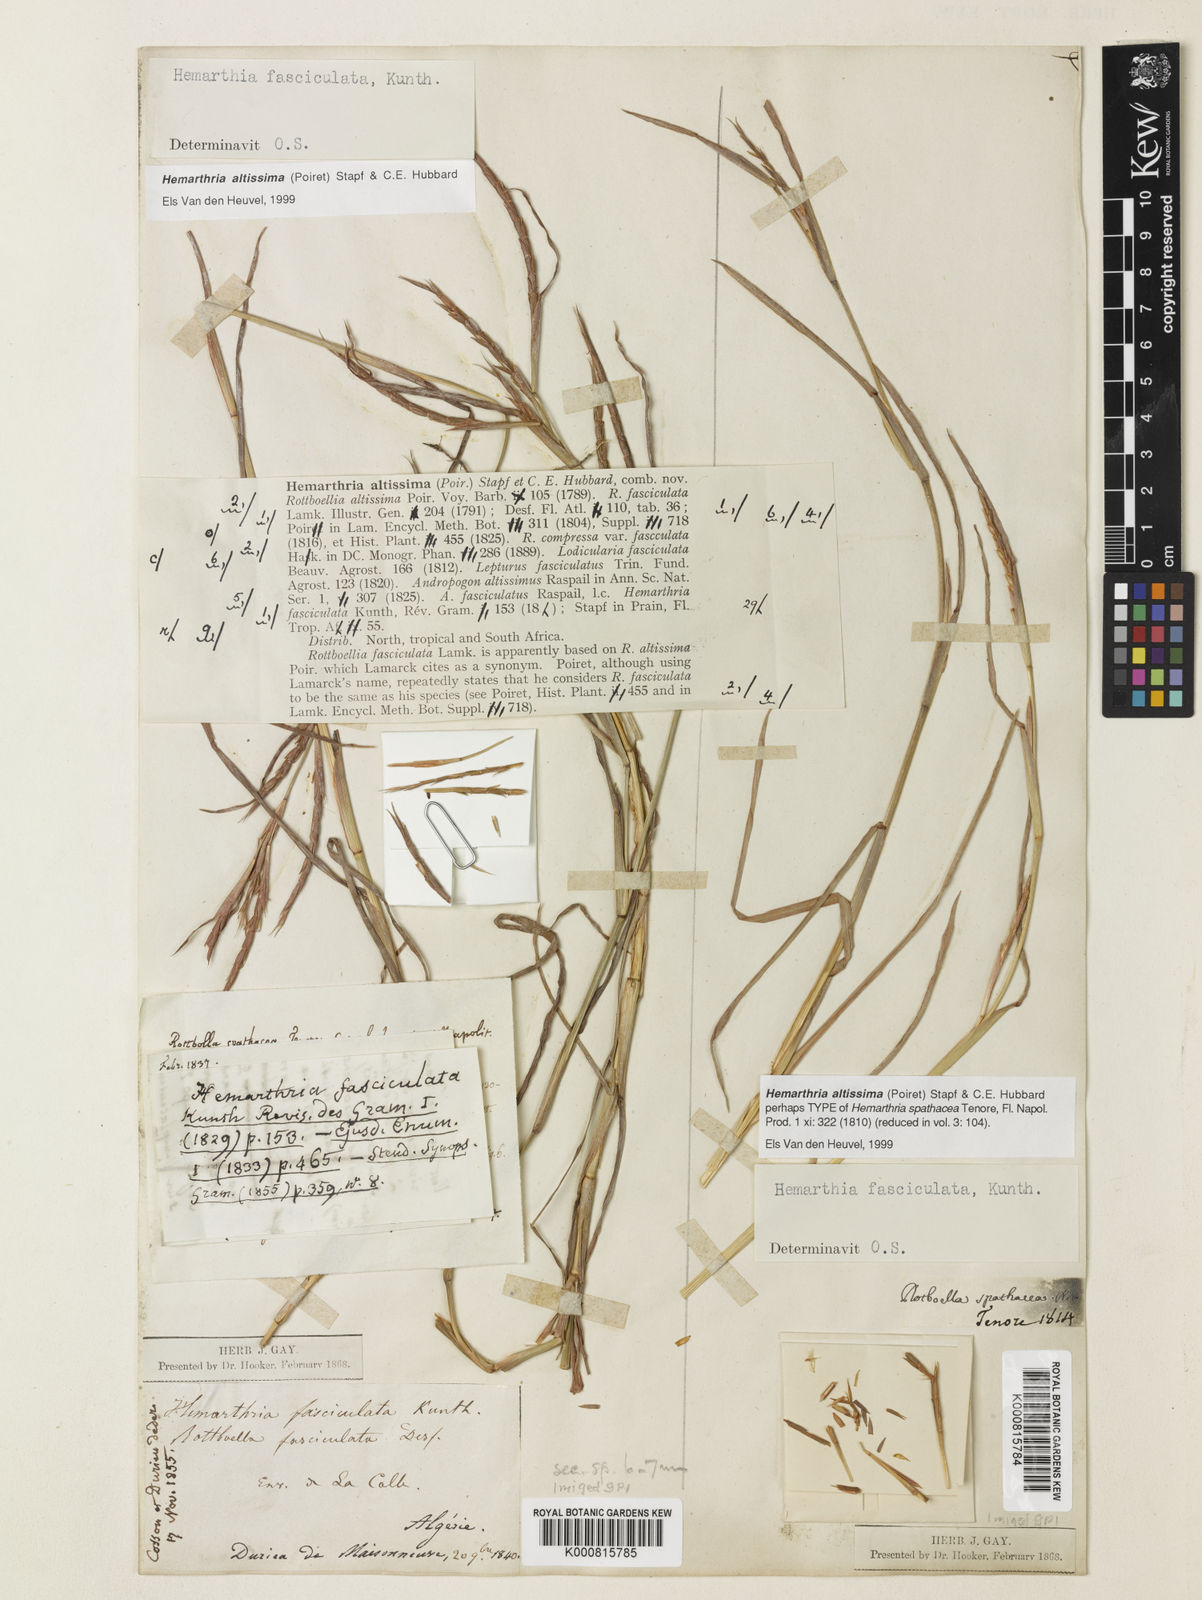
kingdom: Plantae
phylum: Tracheophyta
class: Liliopsida
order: Poales
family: Poaceae
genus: Hemarthria
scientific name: Hemarthria altissima
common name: African jointgrass
